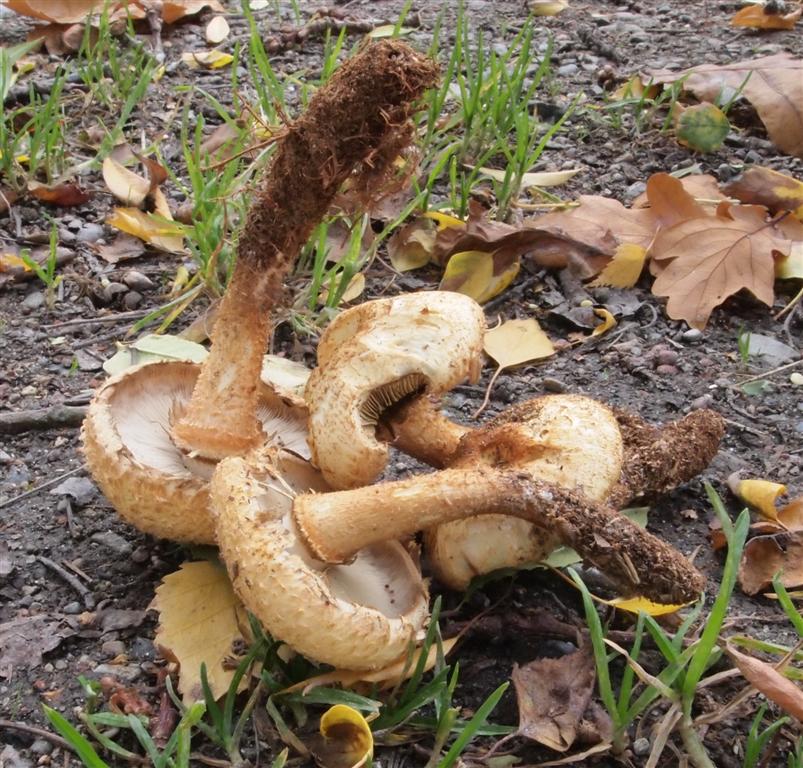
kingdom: Fungi
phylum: Basidiomycota
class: Agaricomycetes
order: Agaricales
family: Strophariaceae
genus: Pholiota
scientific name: Pholiota squarrosa
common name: krumskællet skælhat
